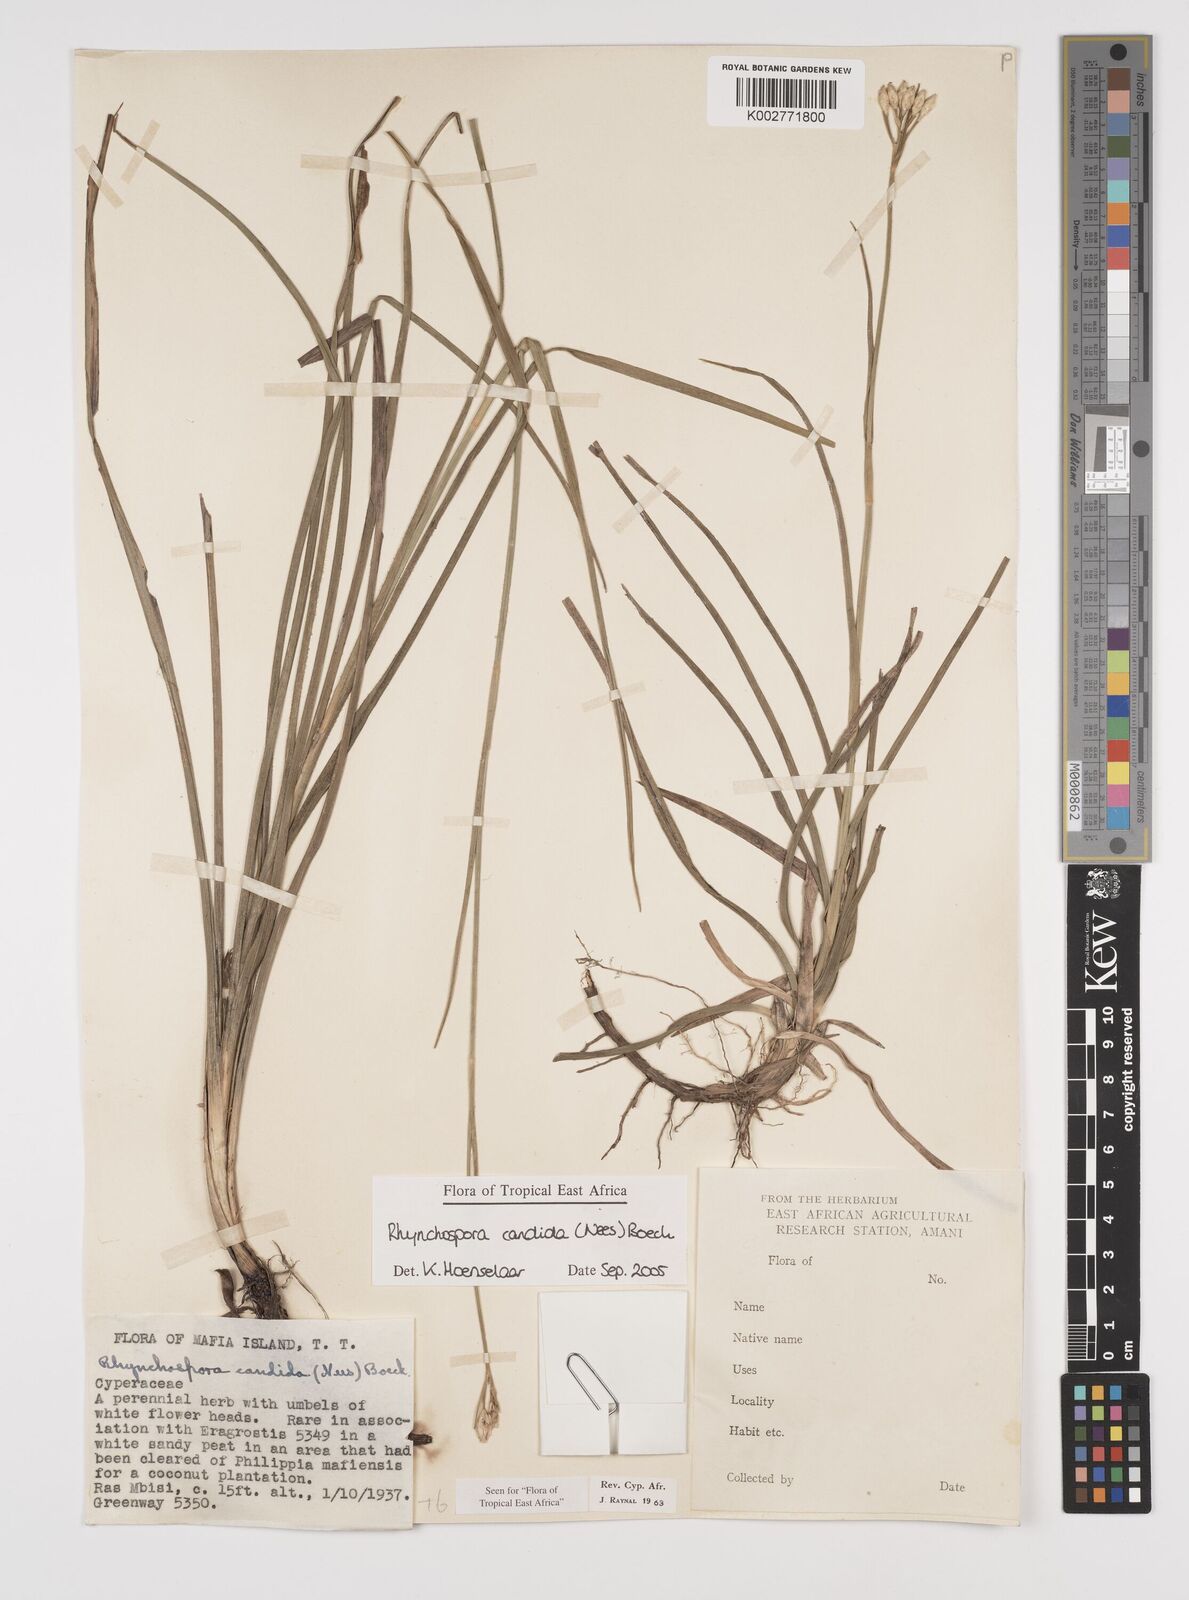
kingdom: Plantae
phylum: Tracheophyta
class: Liliopsida
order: Poales
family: Cyperaceae
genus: Rhynchospora
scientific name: Rhynchospora candida
